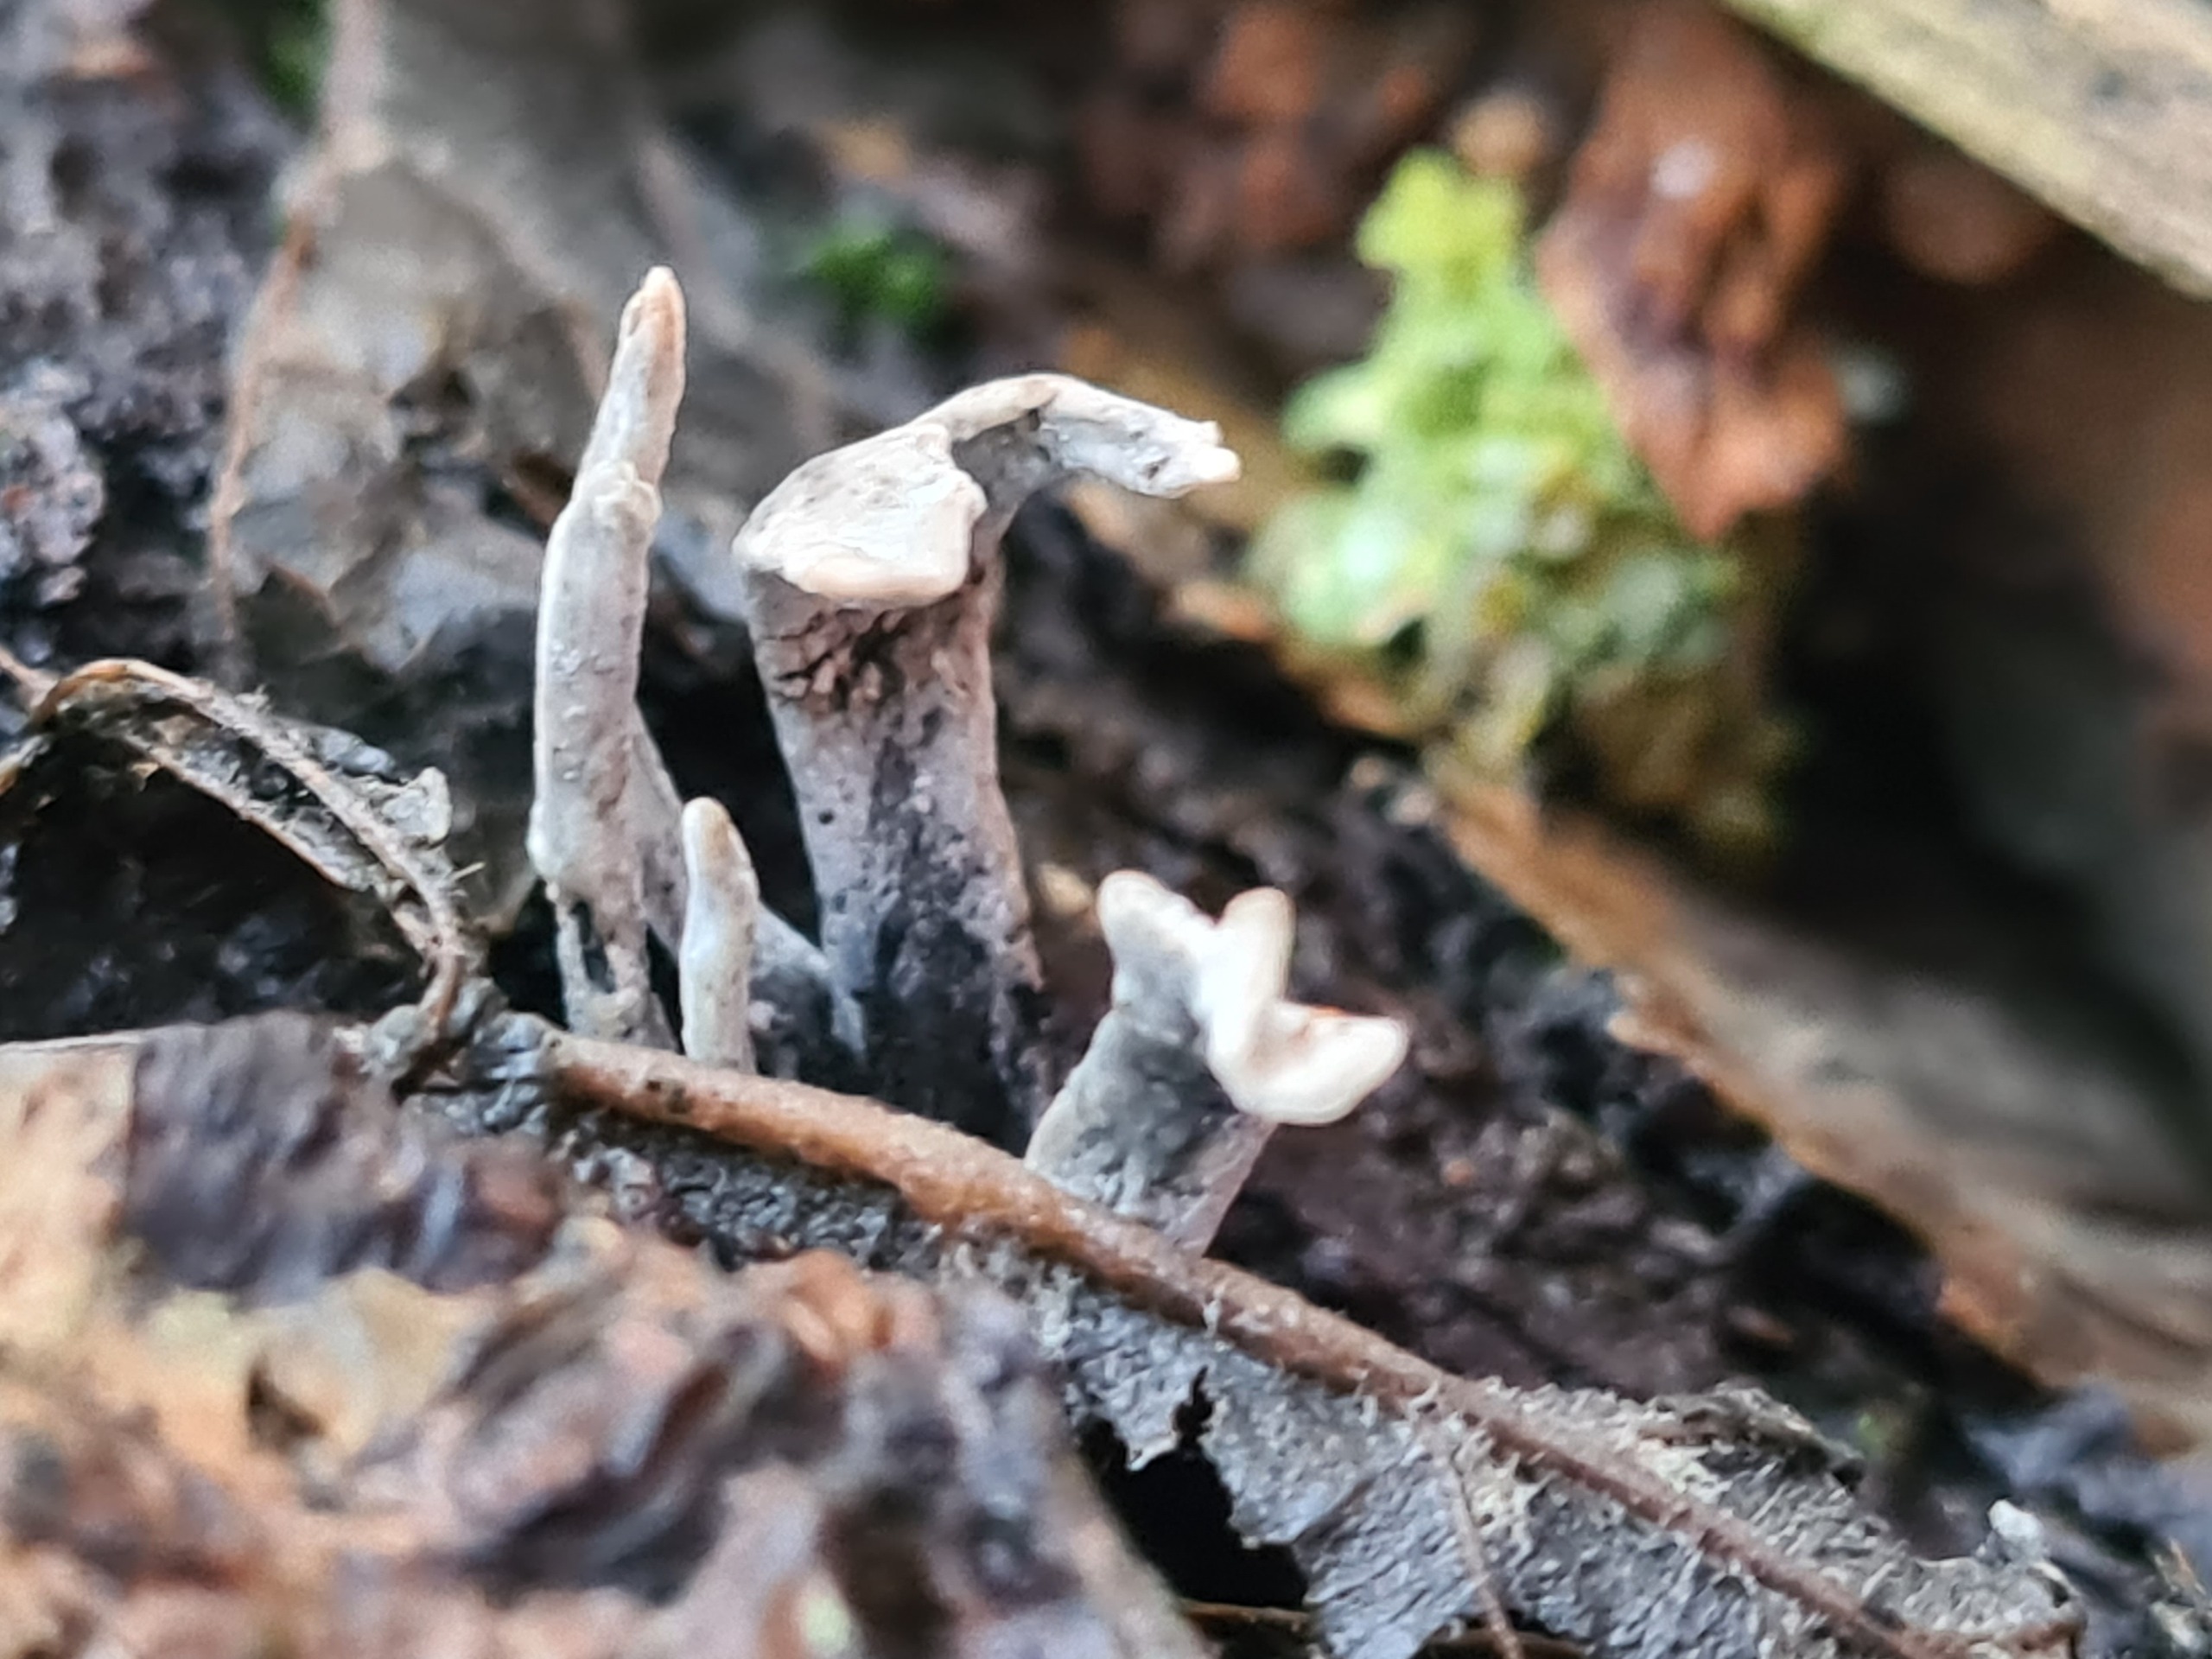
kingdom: Fungi
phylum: Ascomycota
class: Sordariomycetes
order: Xylariales
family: Xylariaceae
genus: Xylaria
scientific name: Xylaria hypoxylon
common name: Grenet stødsvamp
